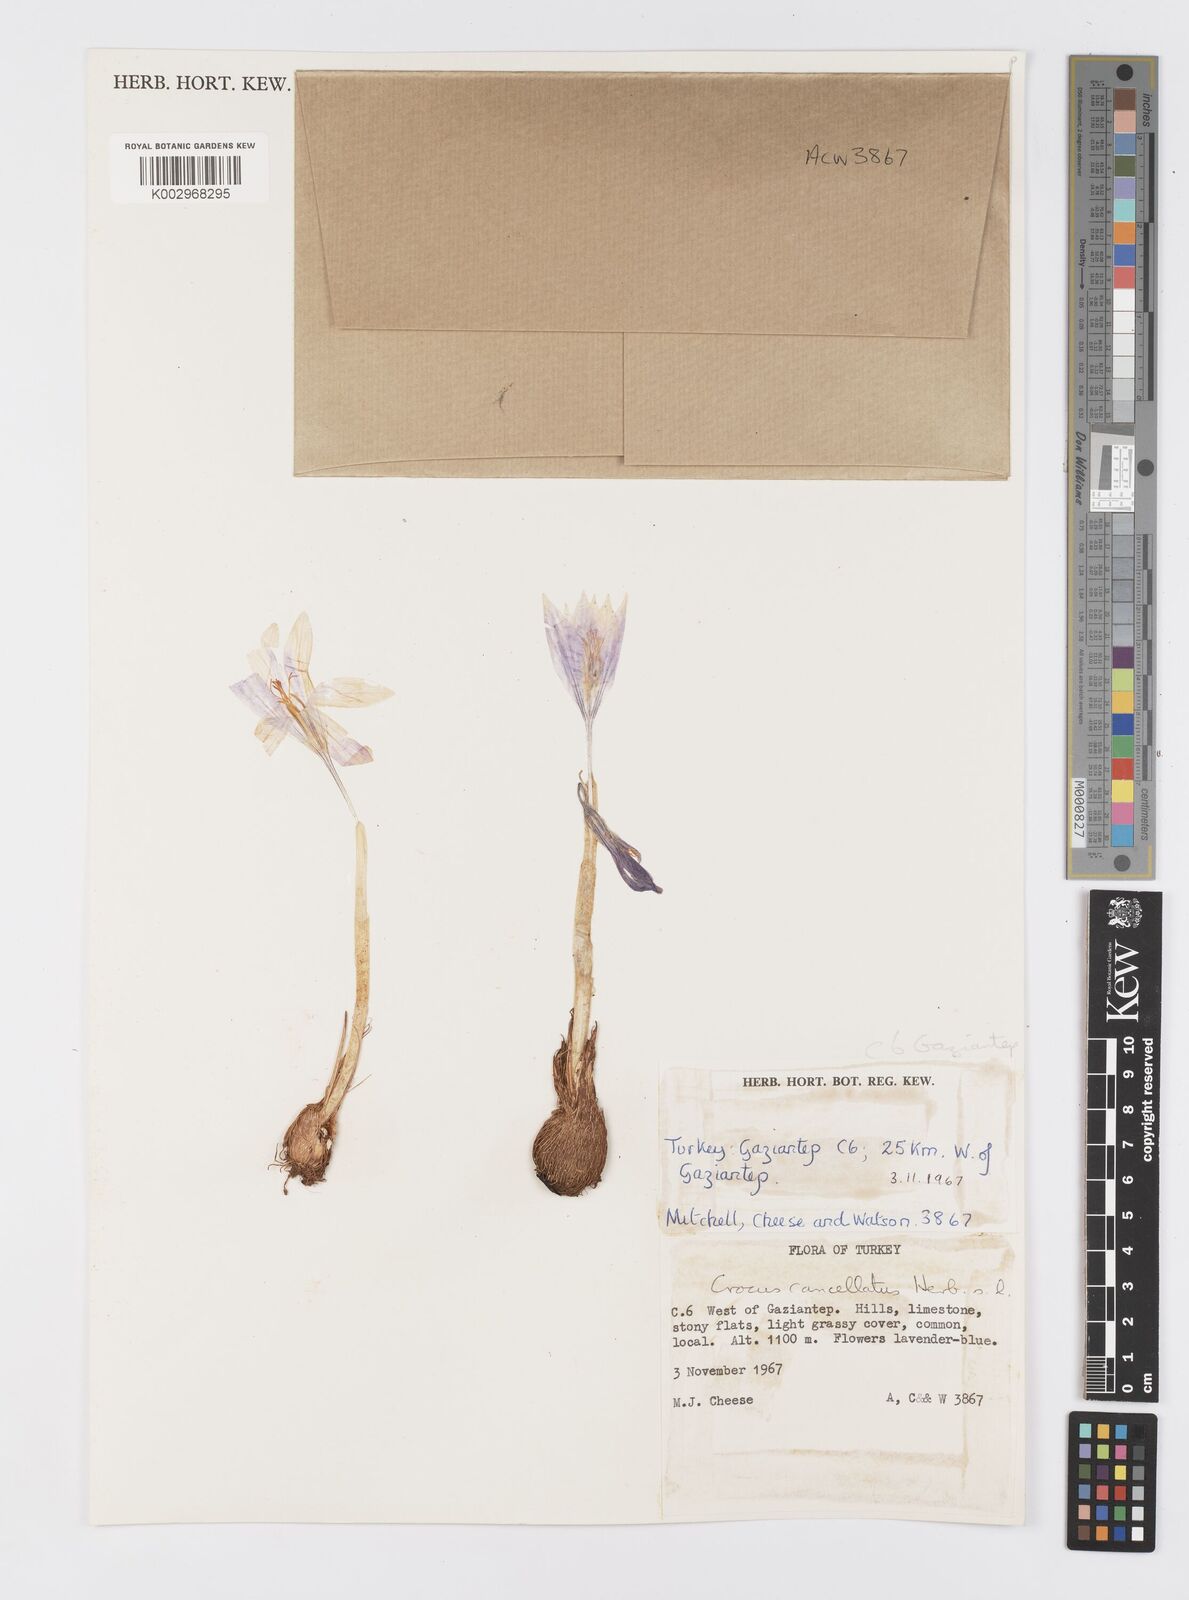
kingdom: Plantae
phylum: Tracheophyta
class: Liliopsida
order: Asparagales
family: Iridaceae
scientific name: Iridaceae
